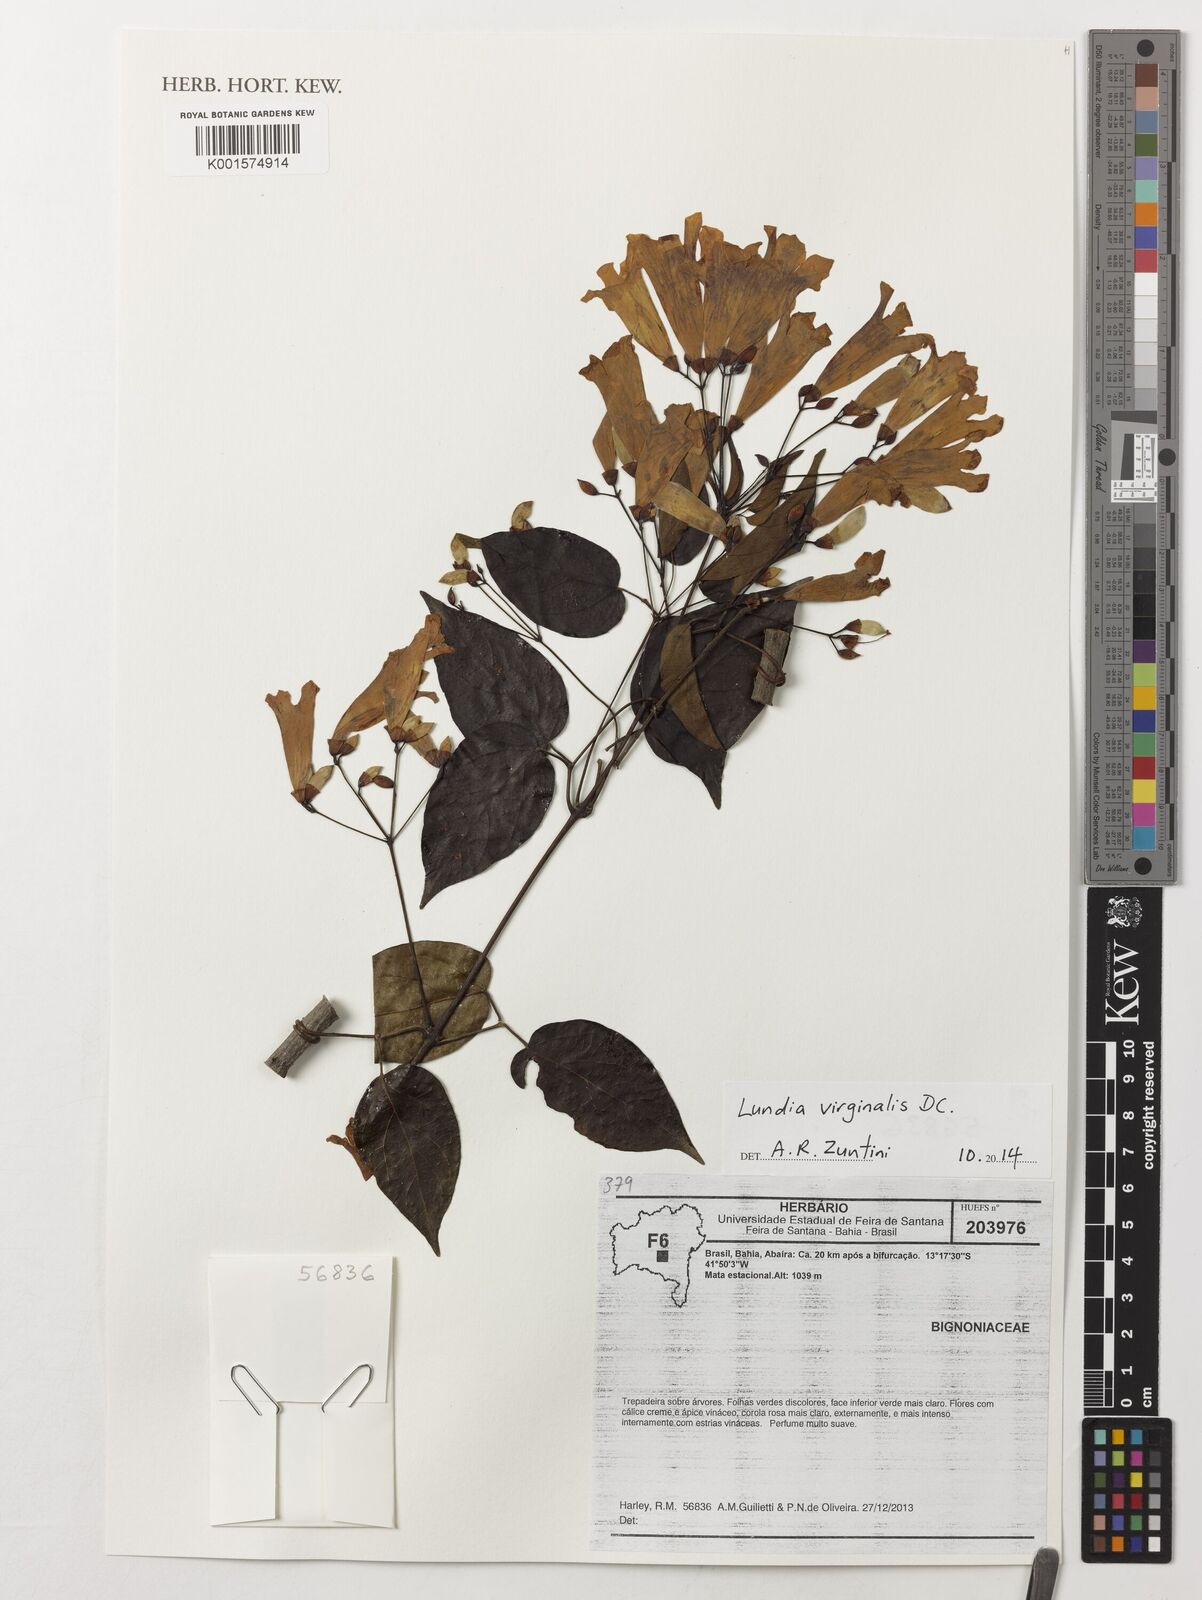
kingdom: Plantae
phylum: Tracheophyta
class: Magnoliopsida
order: Lamiales
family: Bignoniaceae
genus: Lundia
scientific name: Lundia virginalis
